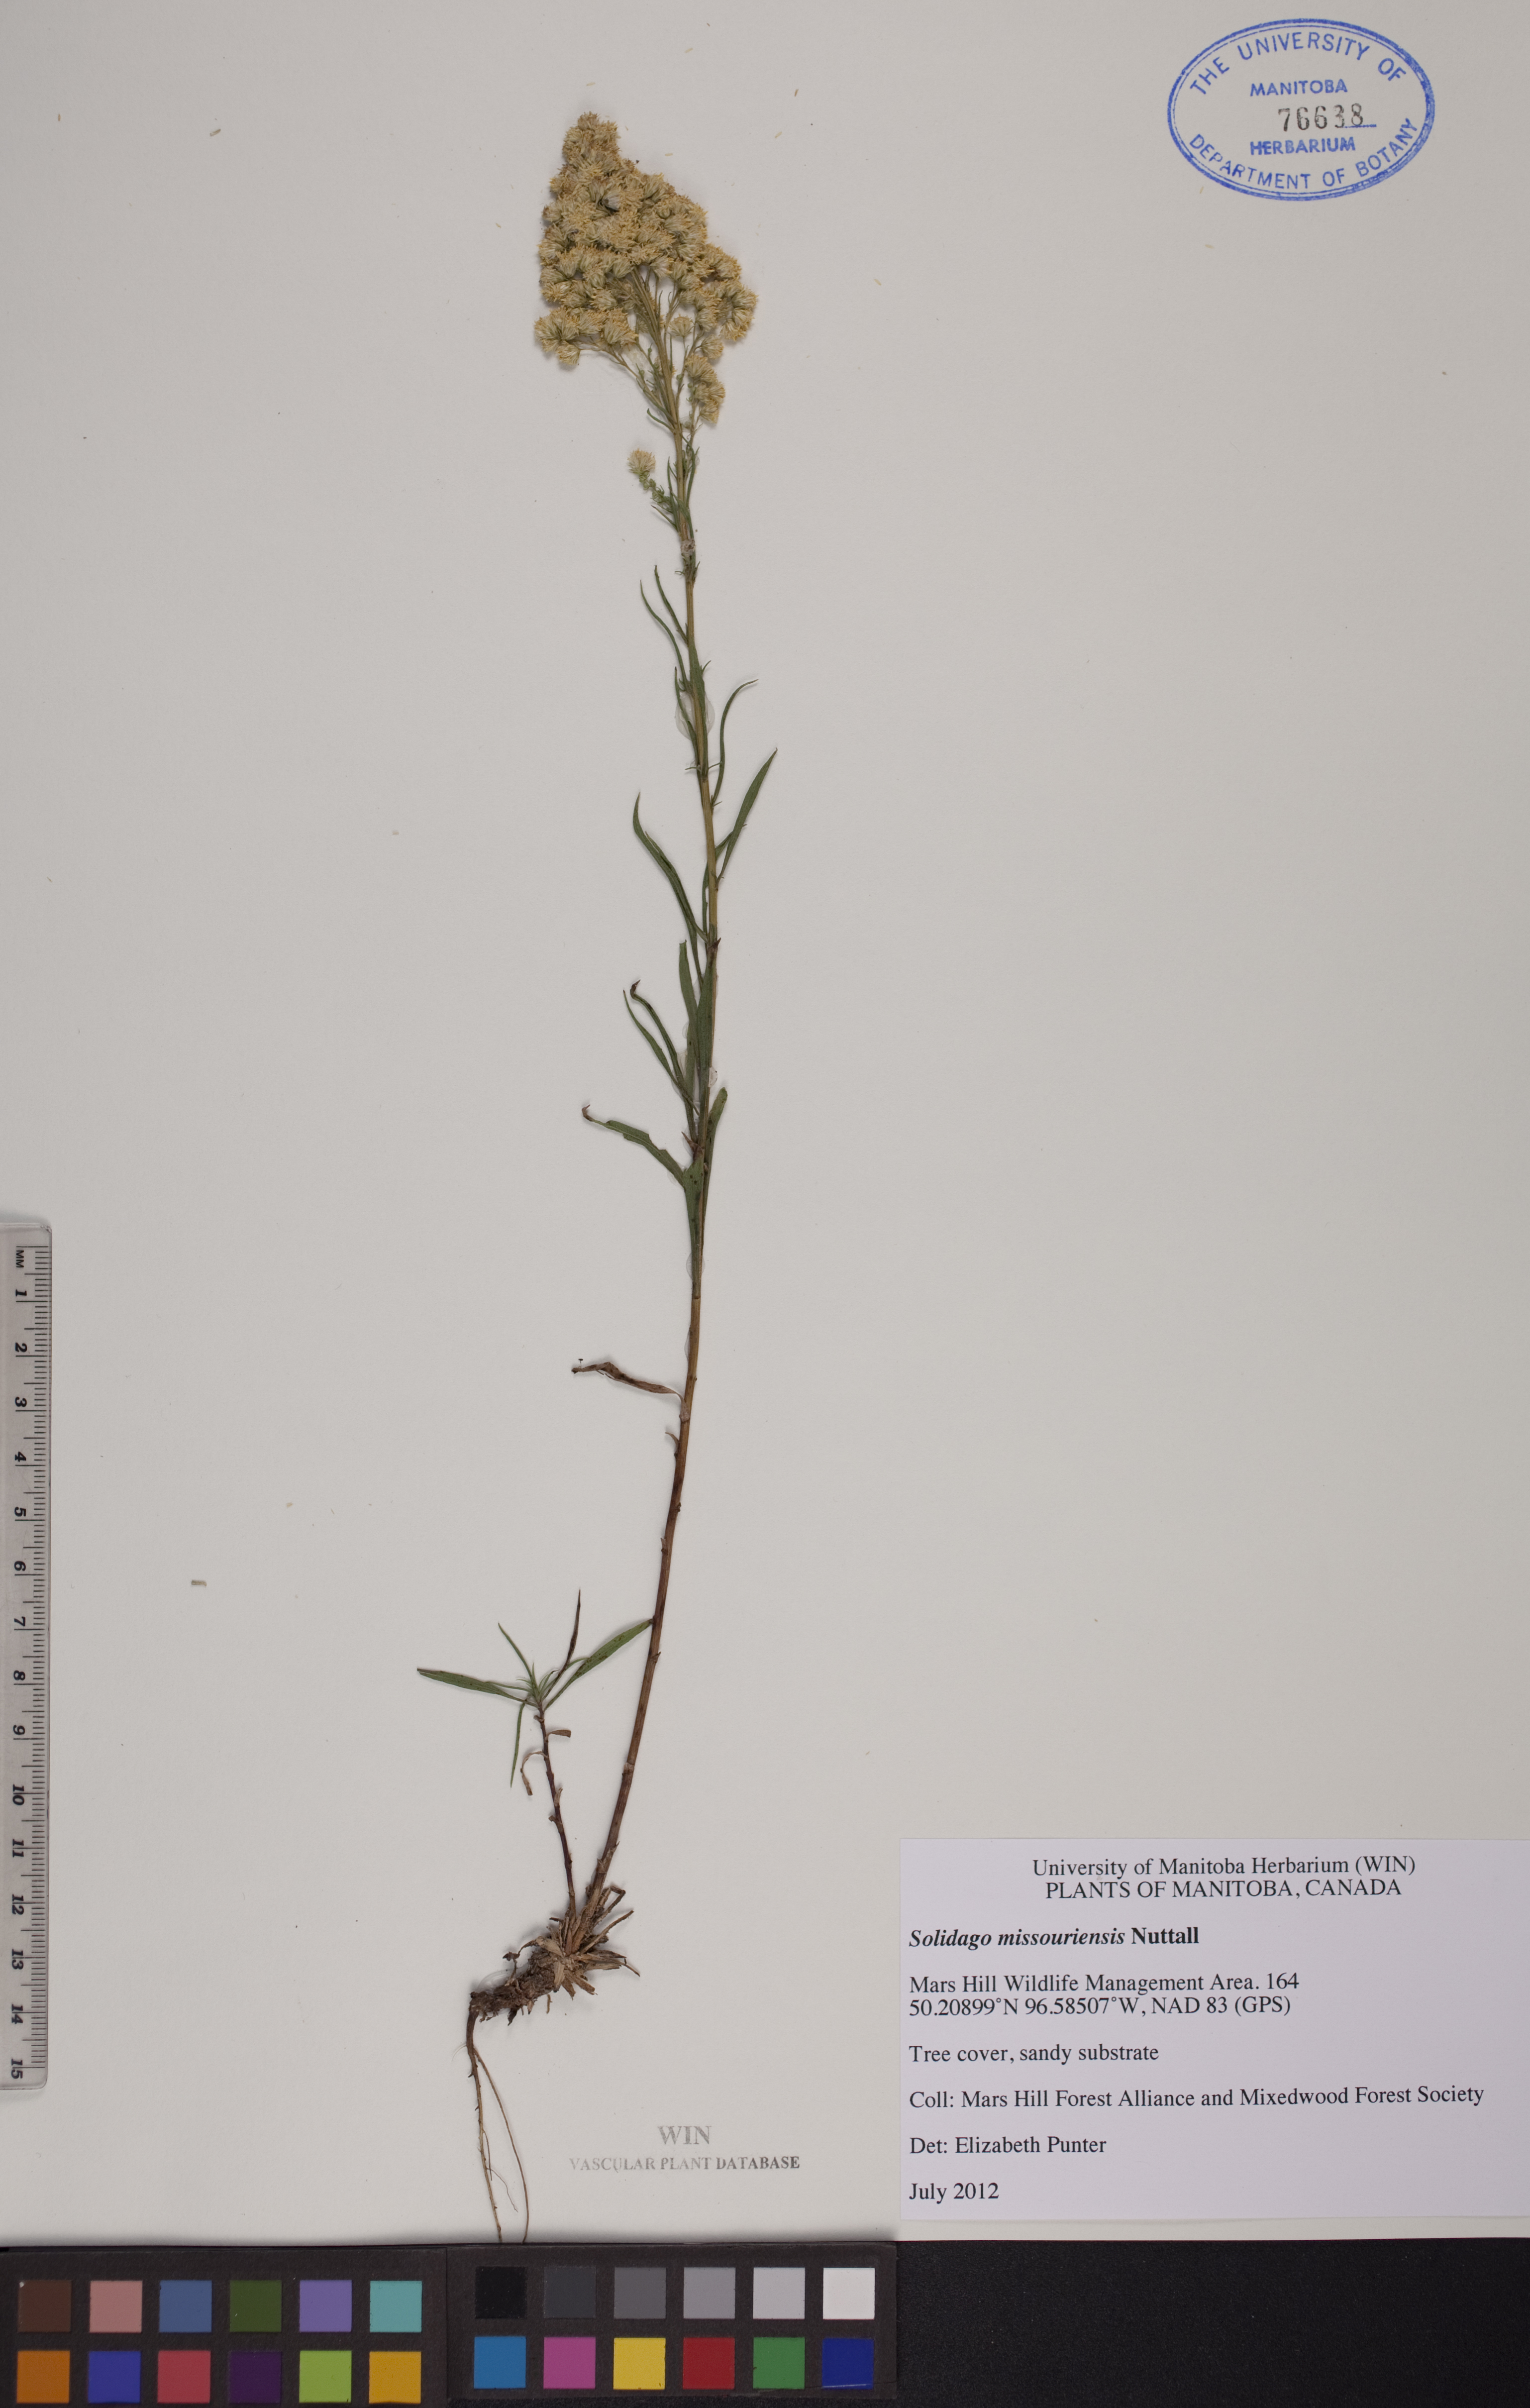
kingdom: Plantae
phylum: Tracheophyta
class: Magnoliopsida
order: Asterales
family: Asteraceae
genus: Solidago
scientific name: Solidago missouriensis
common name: Prairie goldenrod
